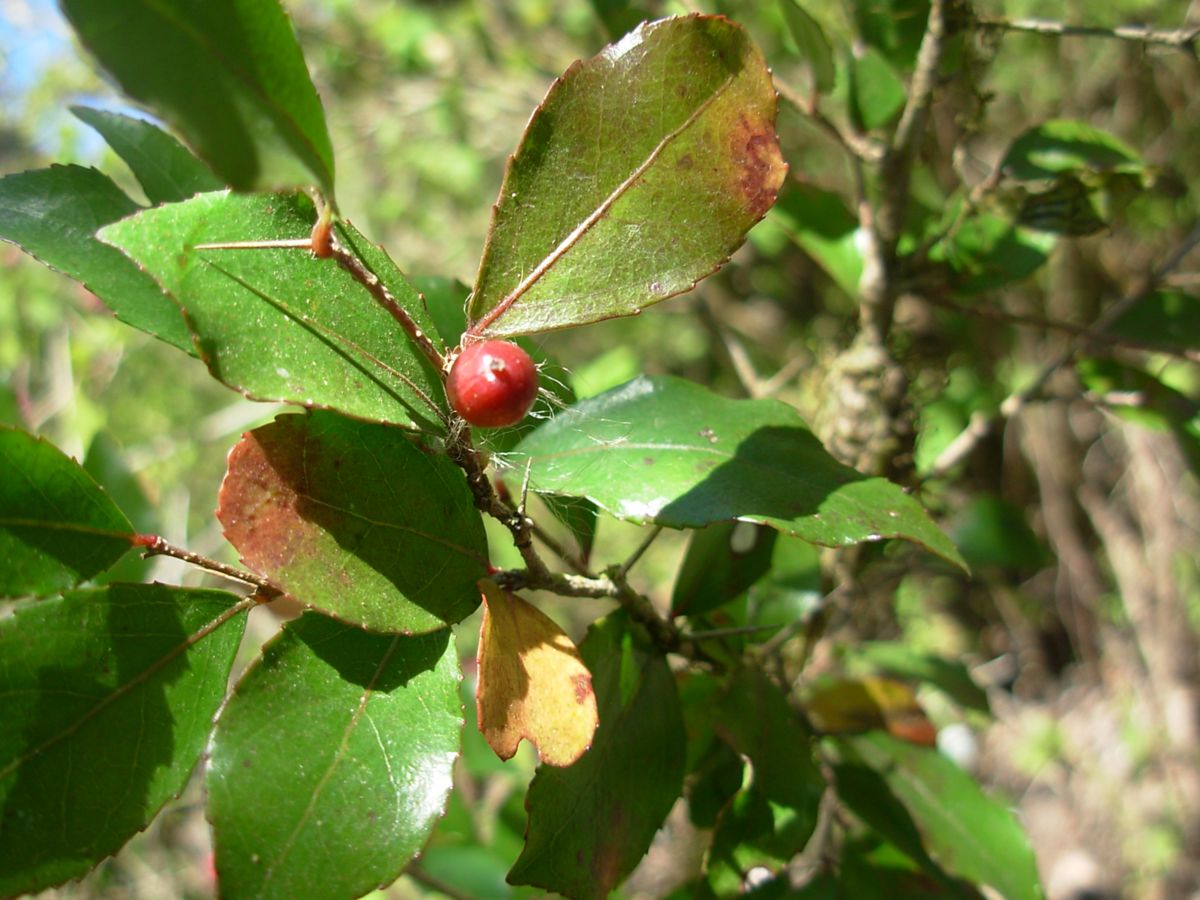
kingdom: Plantae
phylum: Tracheophyta
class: Magnoliopsida
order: Malpighiales
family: Salicaceae
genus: Xylosma
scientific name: Xylosma characantha
